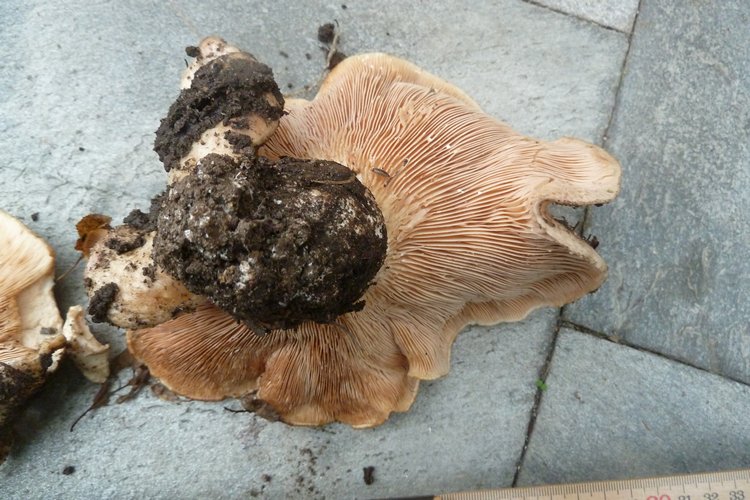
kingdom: Fungi
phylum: Basidiomycota
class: Agaricomycetes
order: Russulales
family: Russulaceae
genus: Lactarius
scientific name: Lactarius controversus
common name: rosabladet mælkehat
